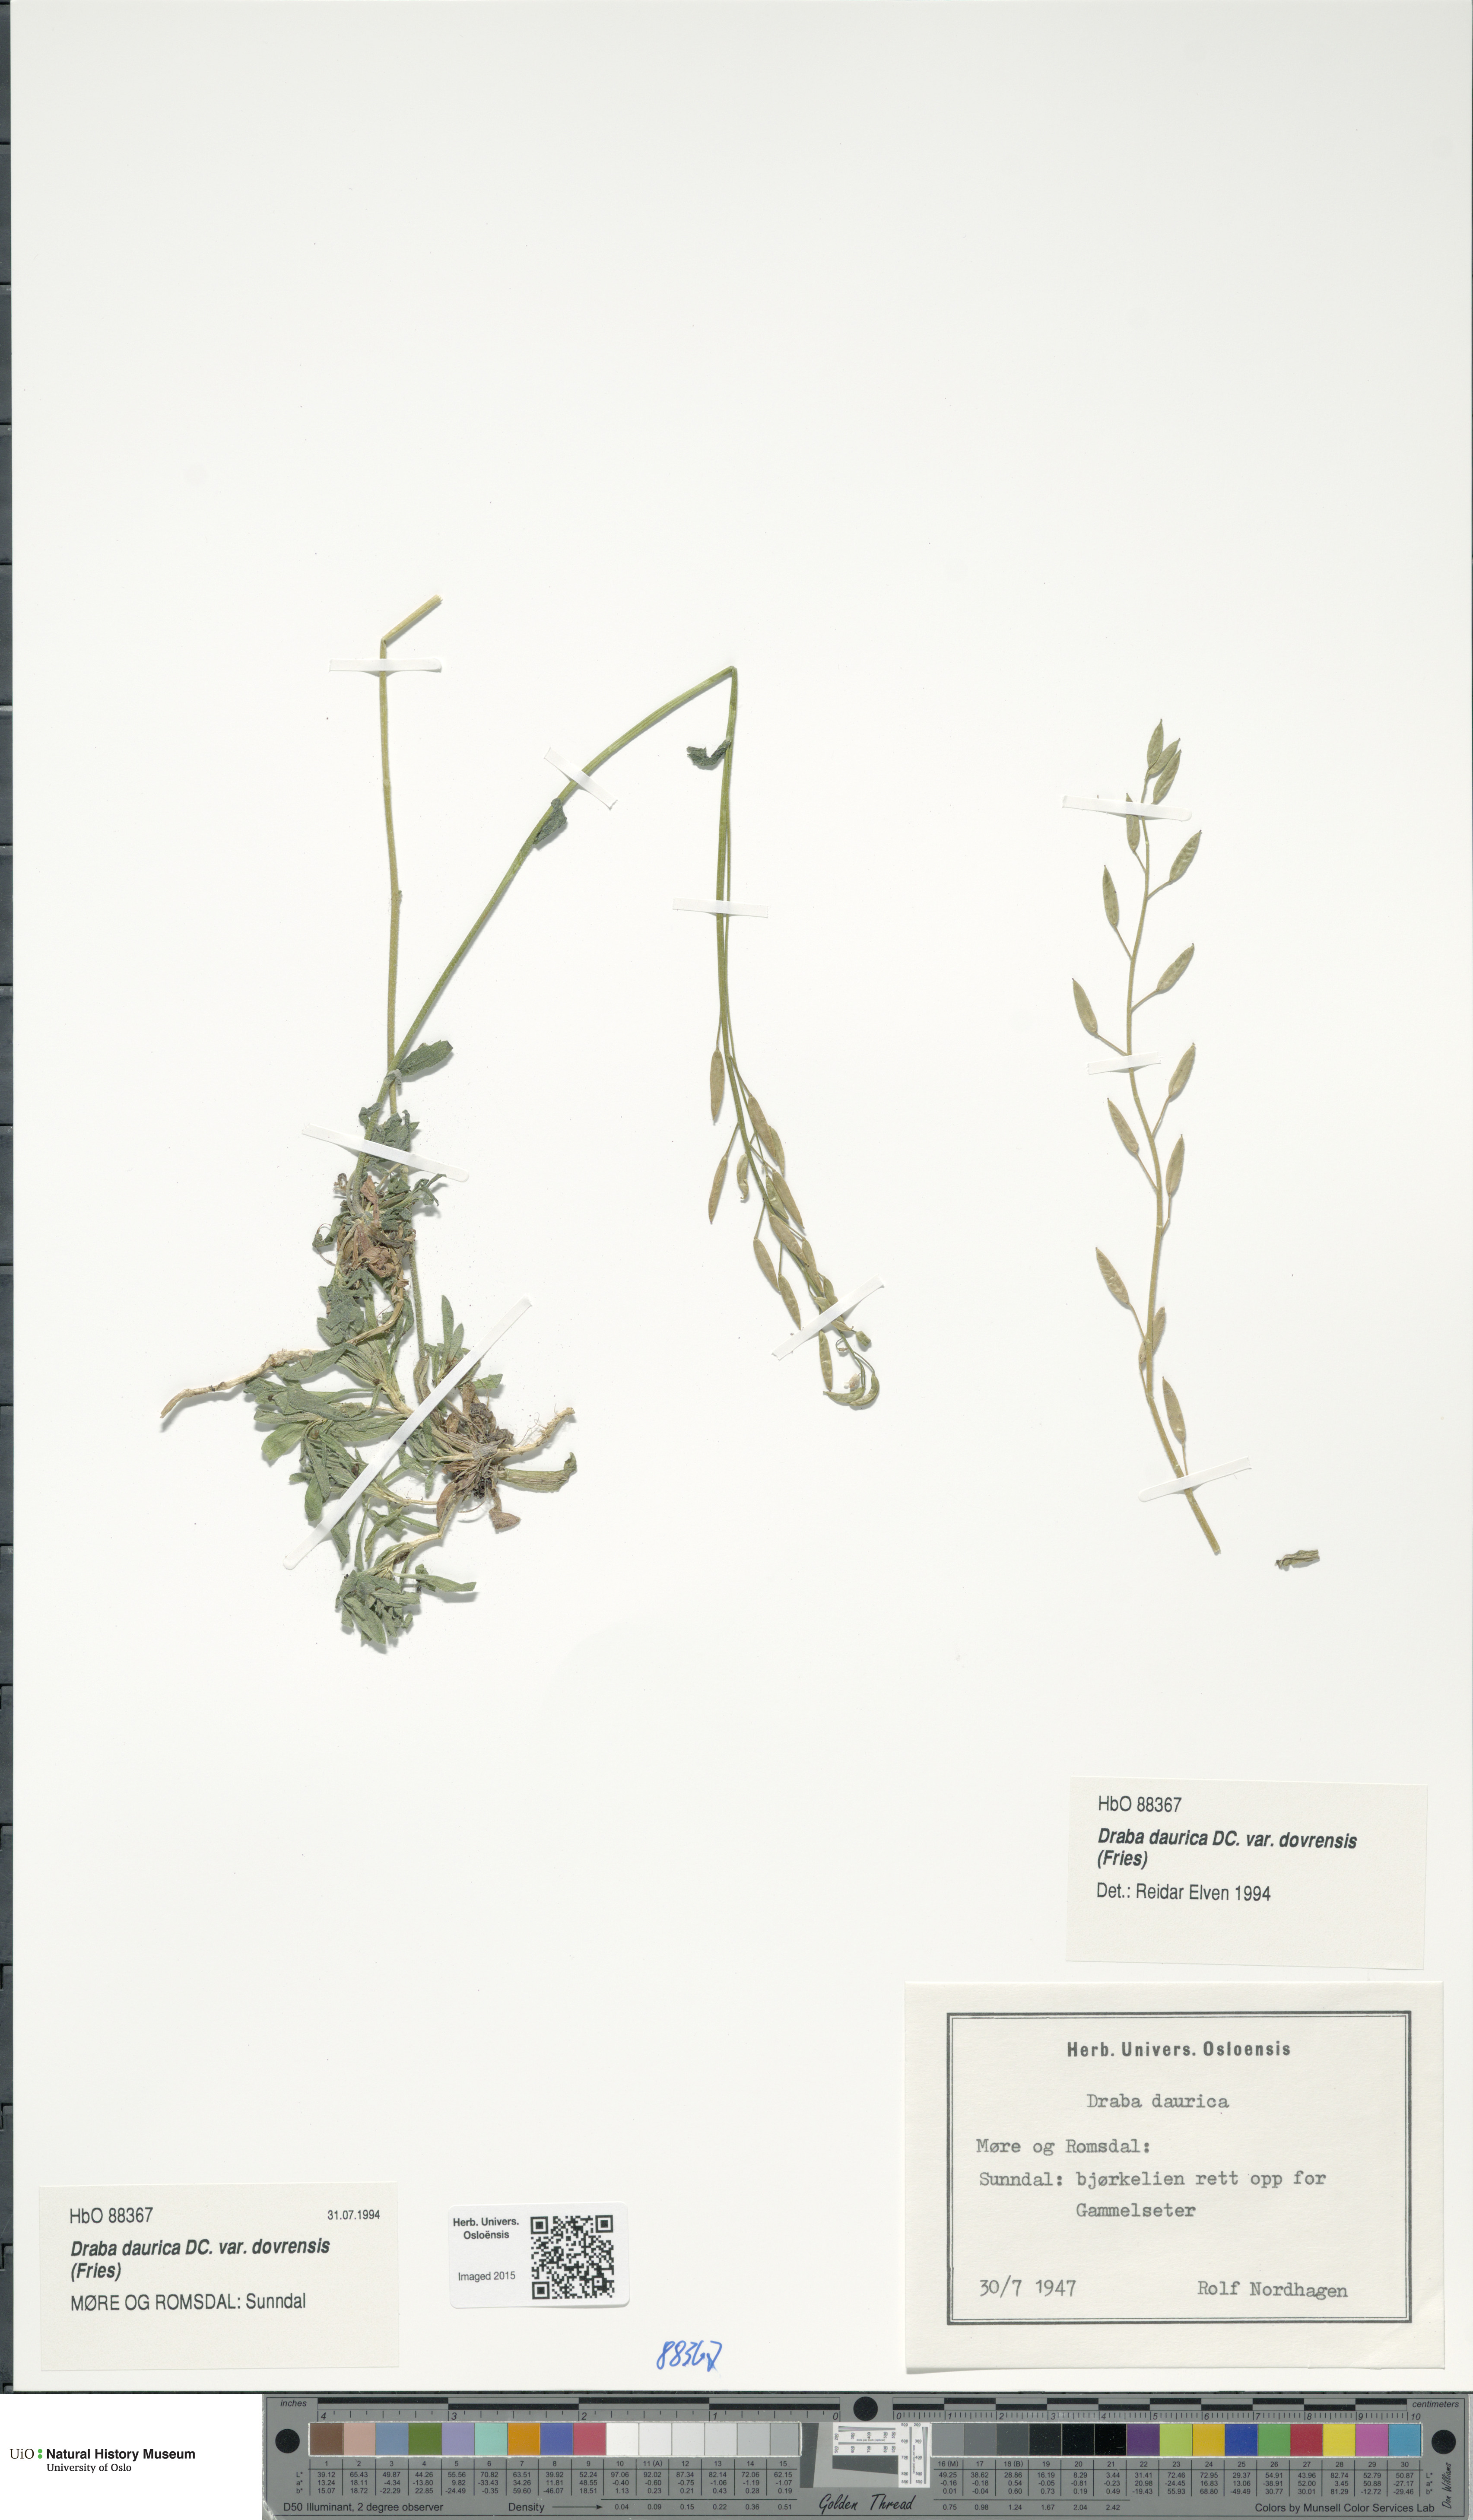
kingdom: Plantae
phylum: Tracheophyta
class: Magnoliopsida
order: Brassicales
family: Brassicaceae
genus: Draba
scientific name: Draba glabella
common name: Glaucous draba
